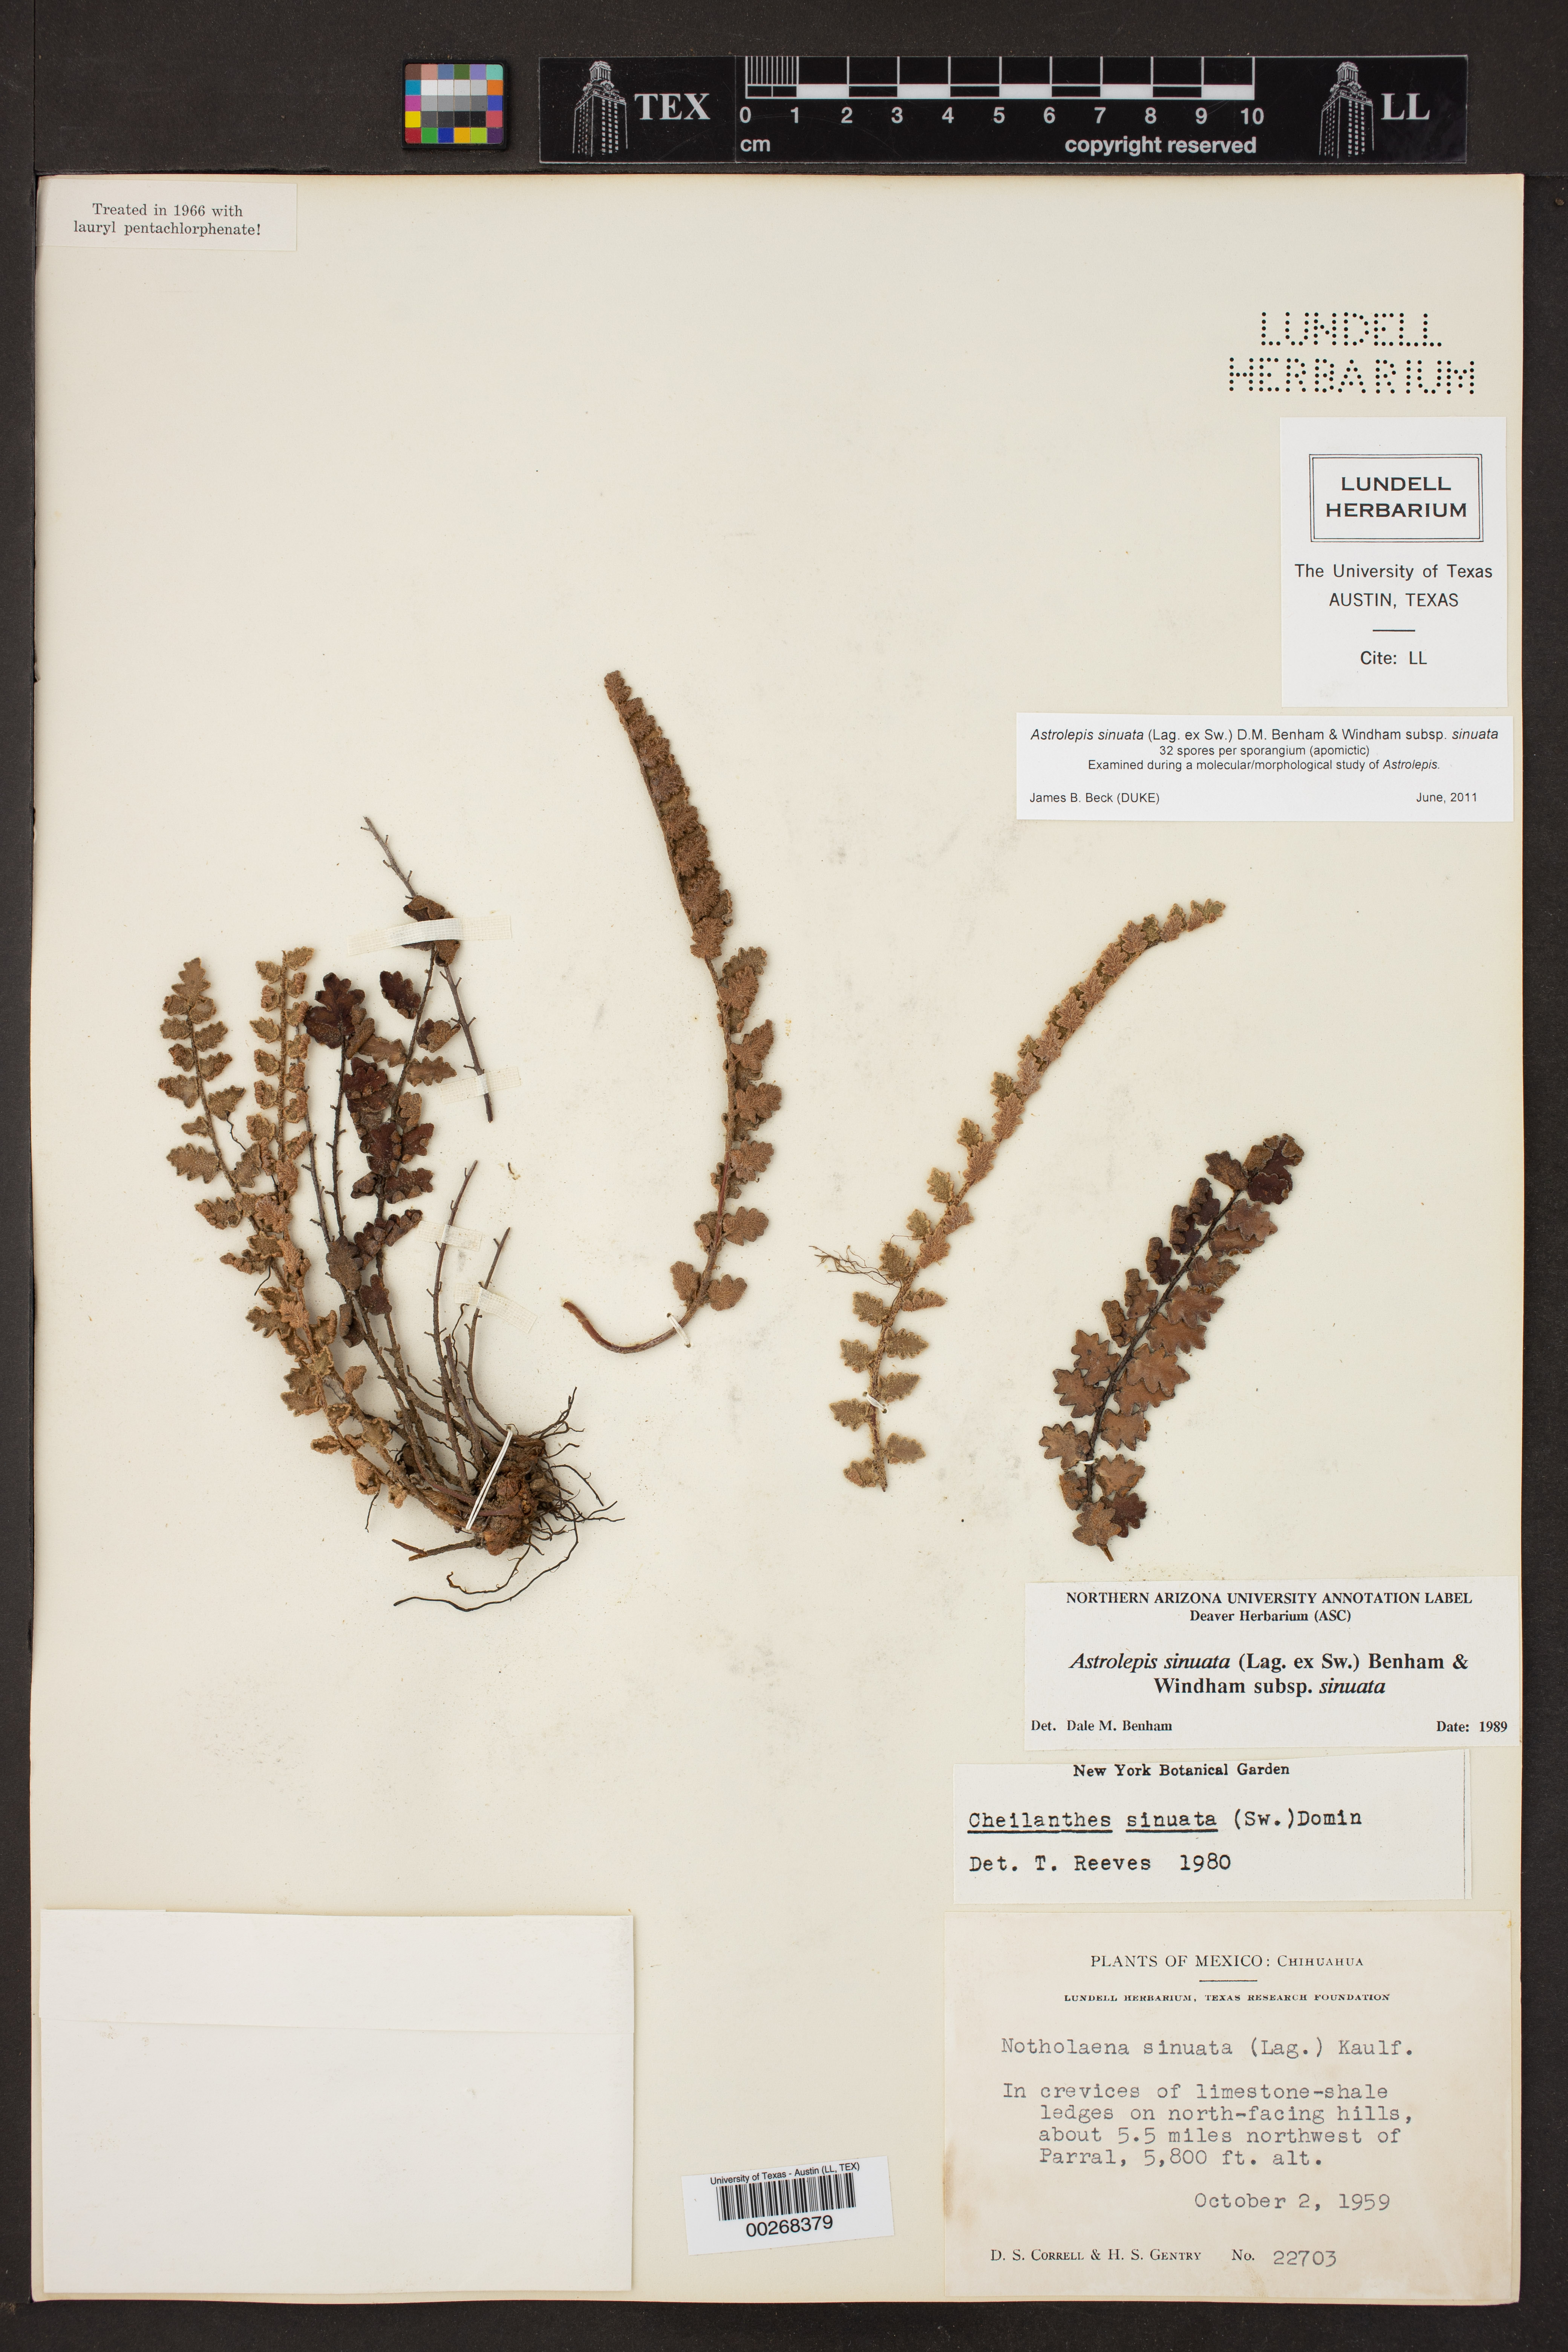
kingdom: Plantae
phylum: Tracheophyta
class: Polypodiopsida
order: Polypodiales
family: Pteridaceae
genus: Astrolepis
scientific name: Astrolepis sinuata
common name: Wavy scaly cloakfern
